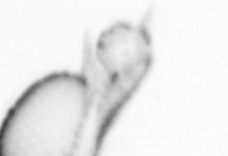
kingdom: Animalia
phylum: Annelida
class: Polychaeta
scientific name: Polychaeta
